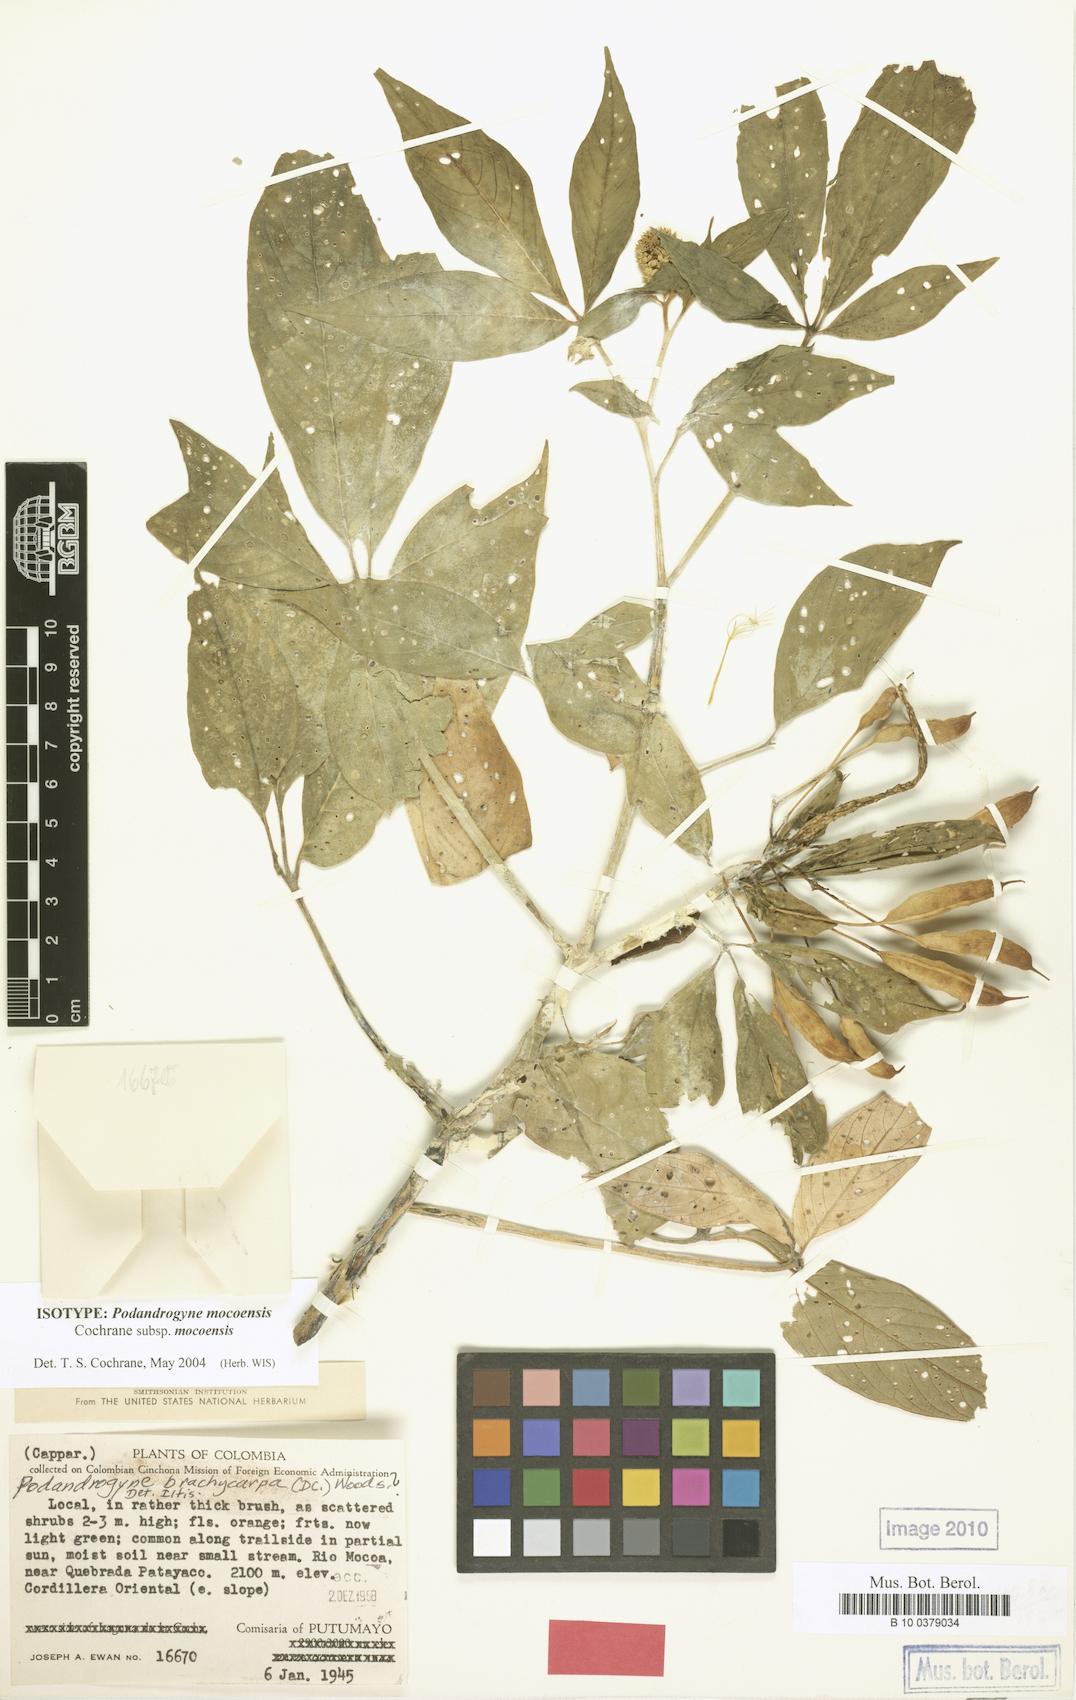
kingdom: Plantae
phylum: Tracheophyta
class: Magnoliopsida
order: Brassicales
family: Cleomaceae
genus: Podandrogyne
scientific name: Podandrogyne
